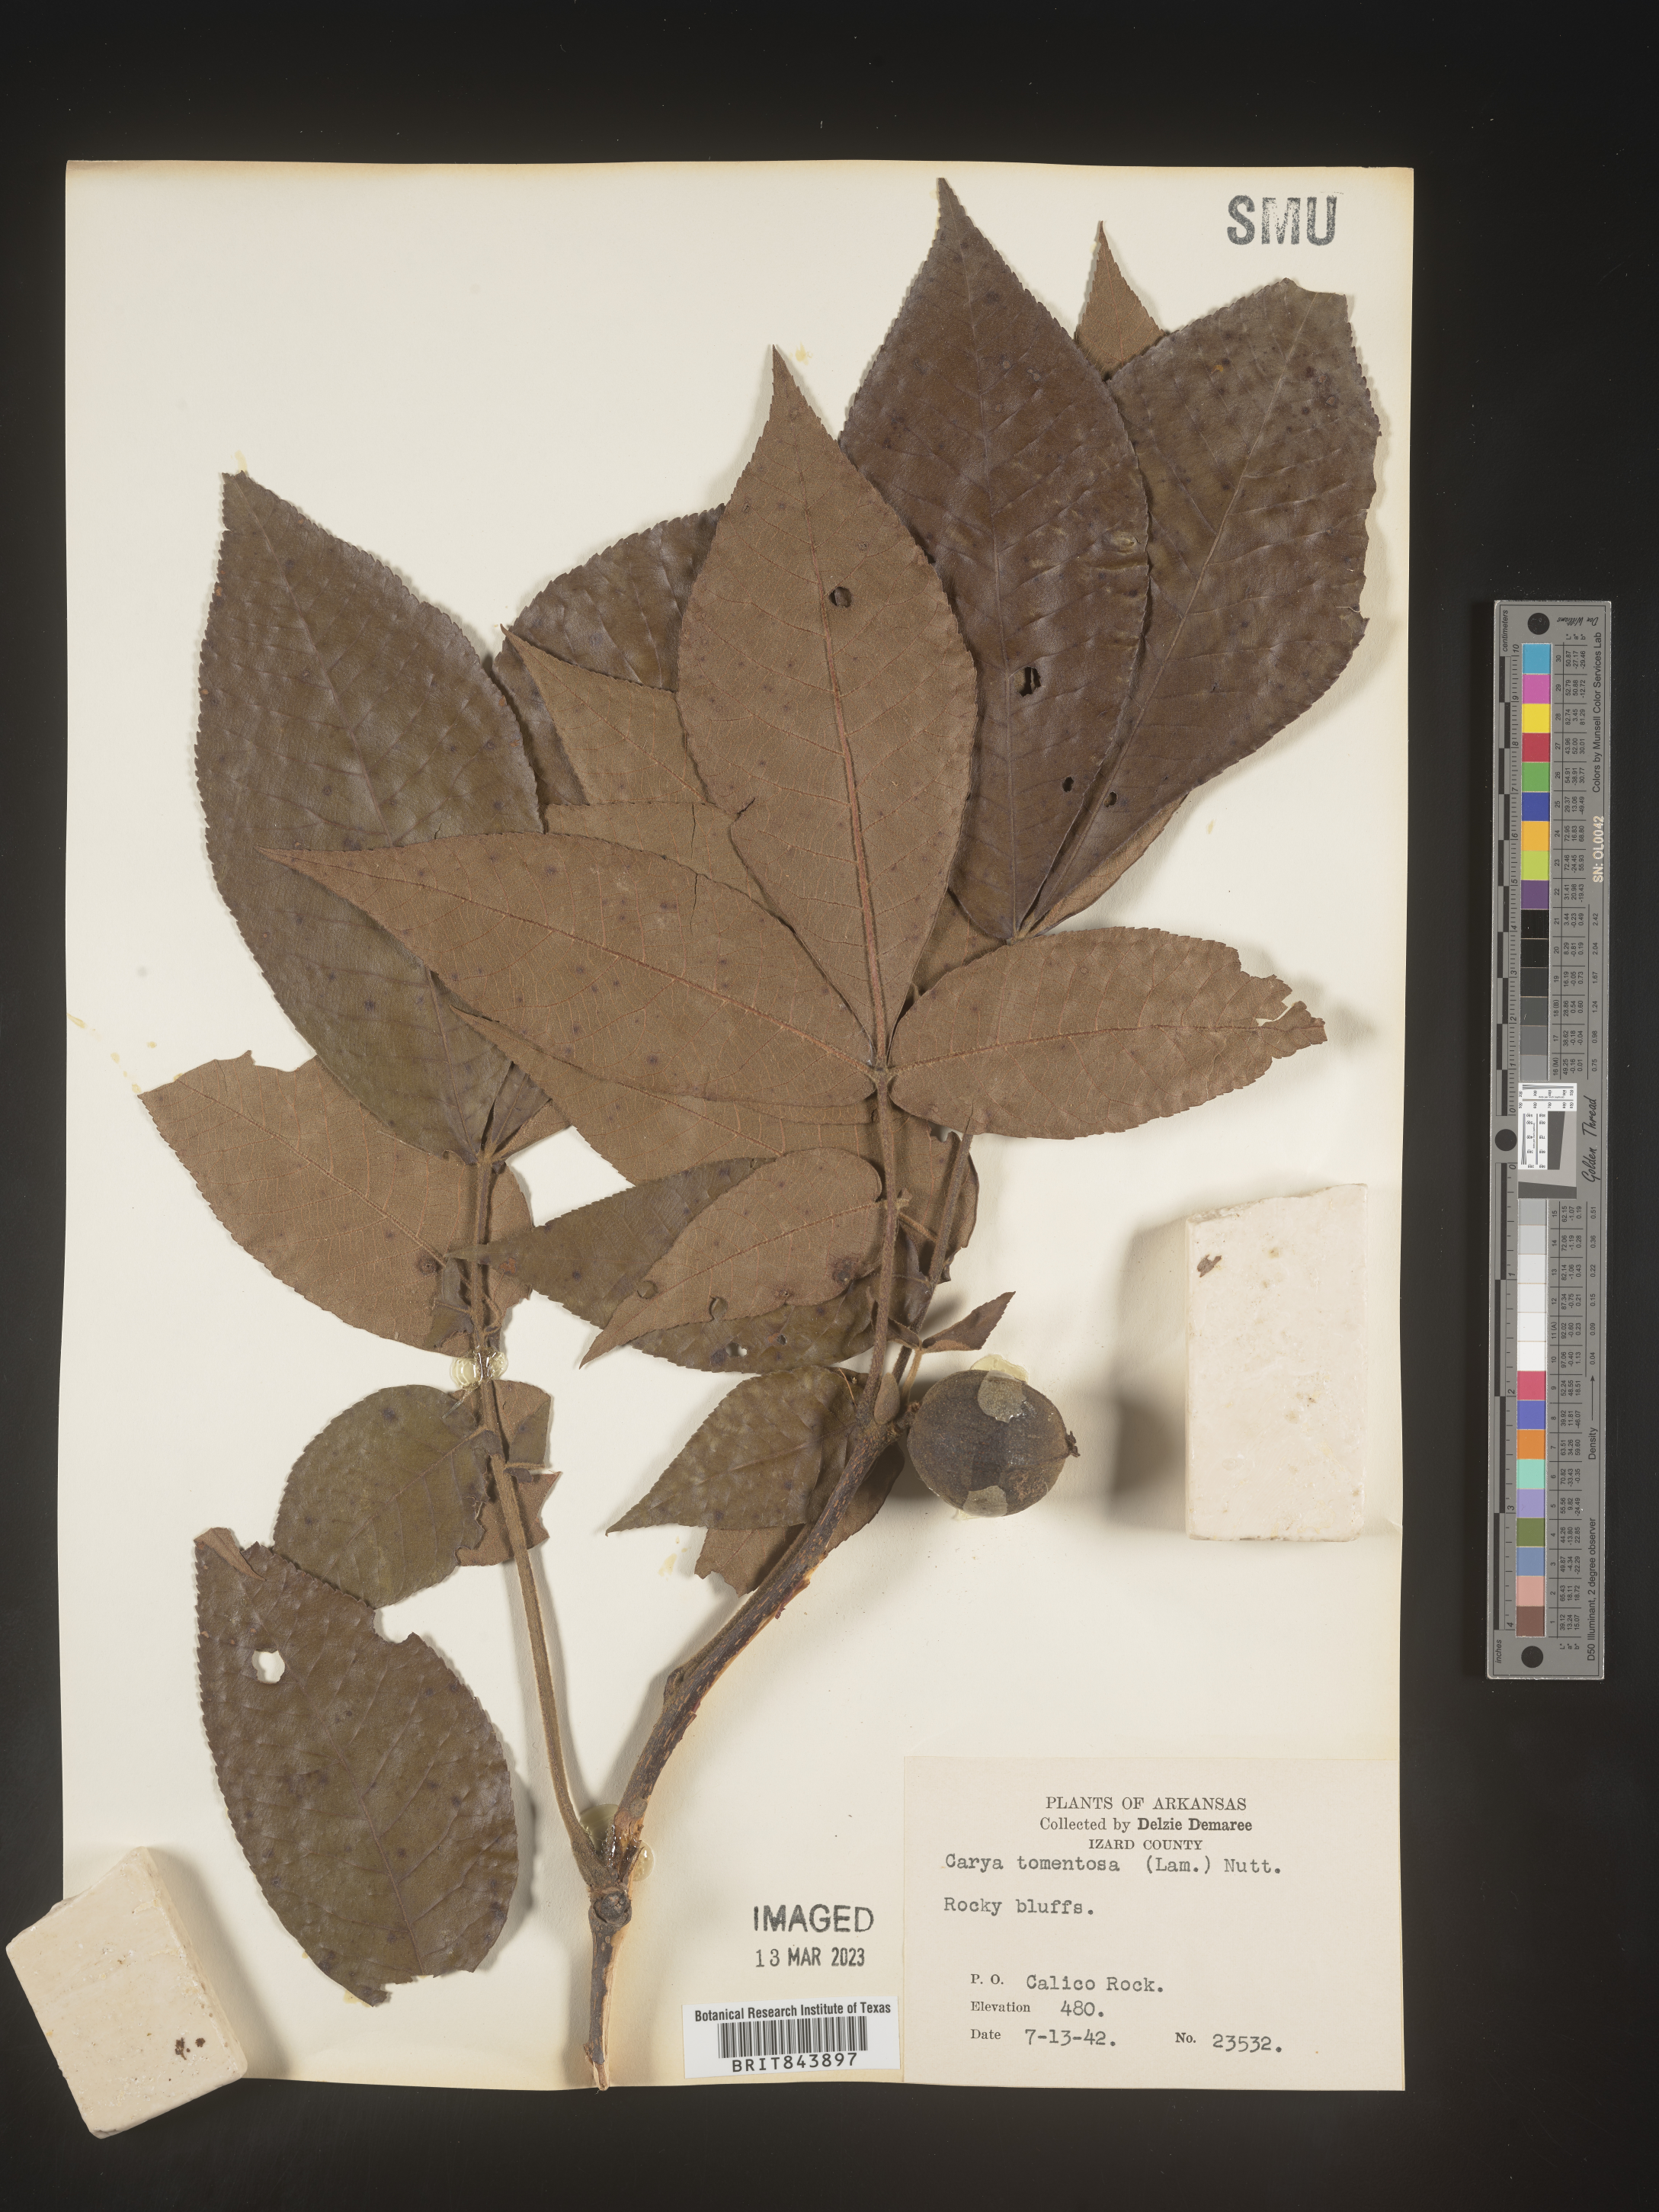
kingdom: Plantae
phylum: Tracheophyta
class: Magnoliopsida
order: Fagales
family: Juglandaceae
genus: Carya
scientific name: Carya alba
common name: Mockernut hickory
